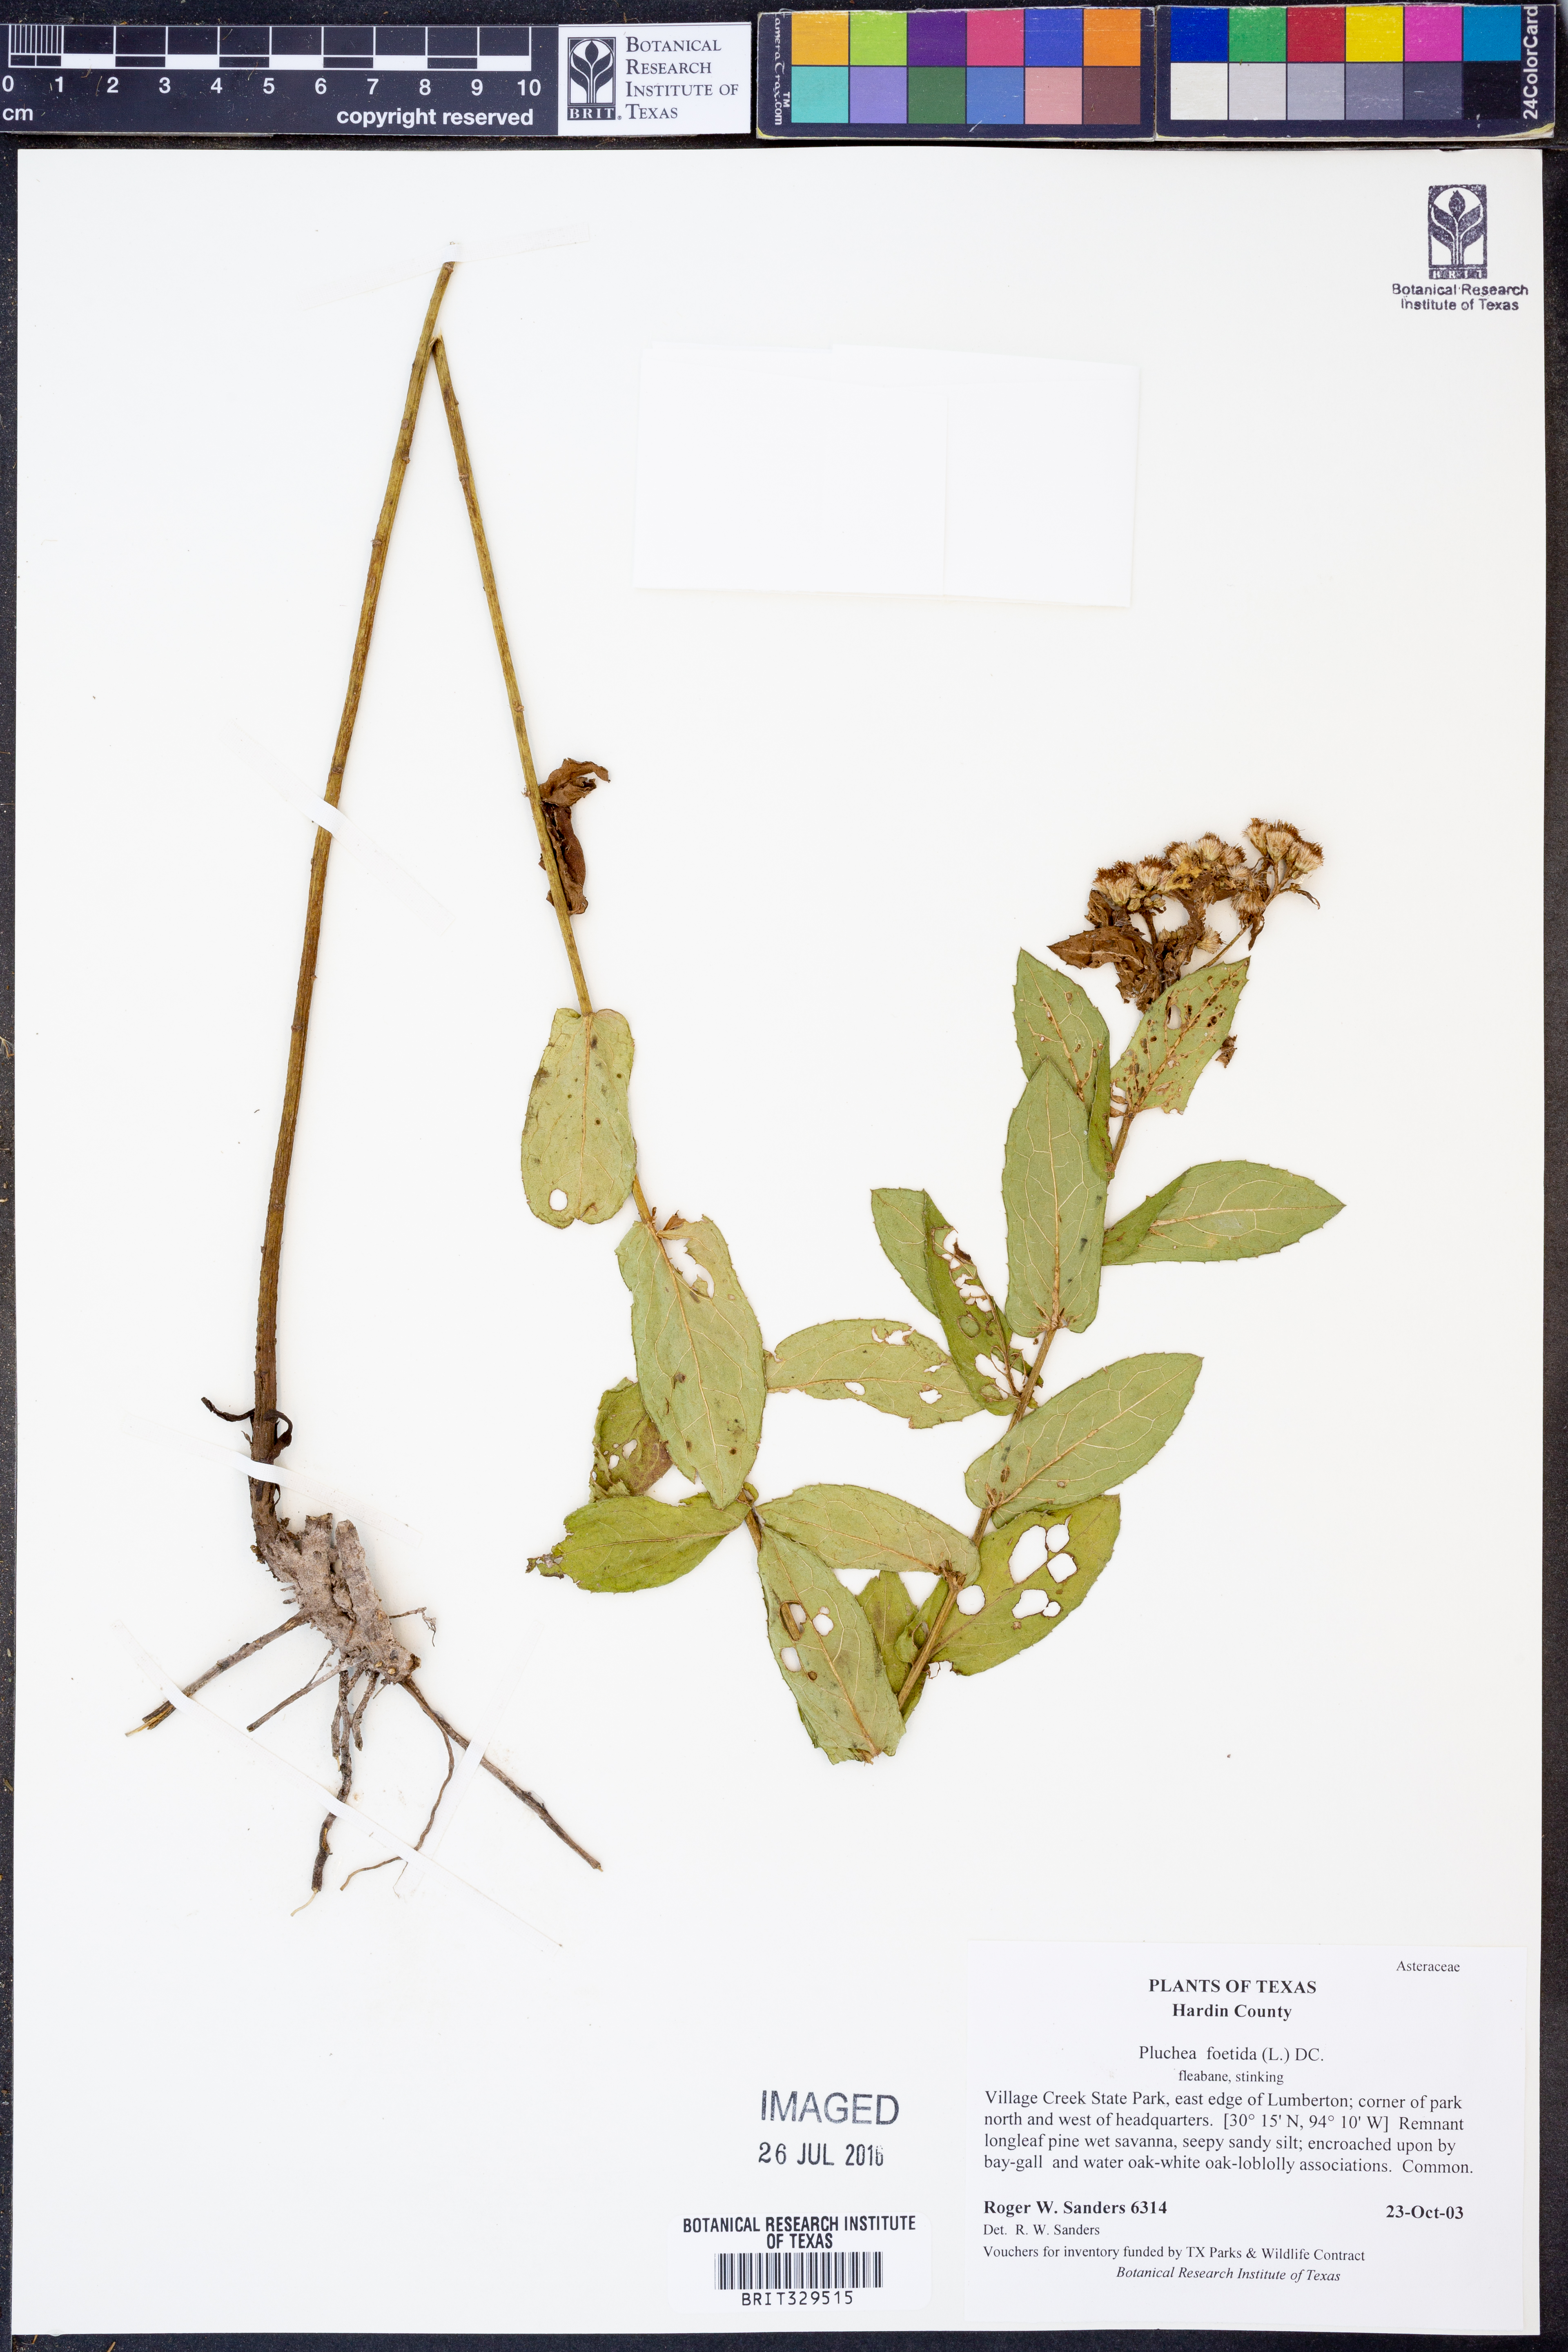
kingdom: Plantae
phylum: Tracheophyta
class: Magnoliopsida
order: Asterales
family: Asteraceae
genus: Pluchea
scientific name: Pluchea foetida
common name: Stinking camphorweed
